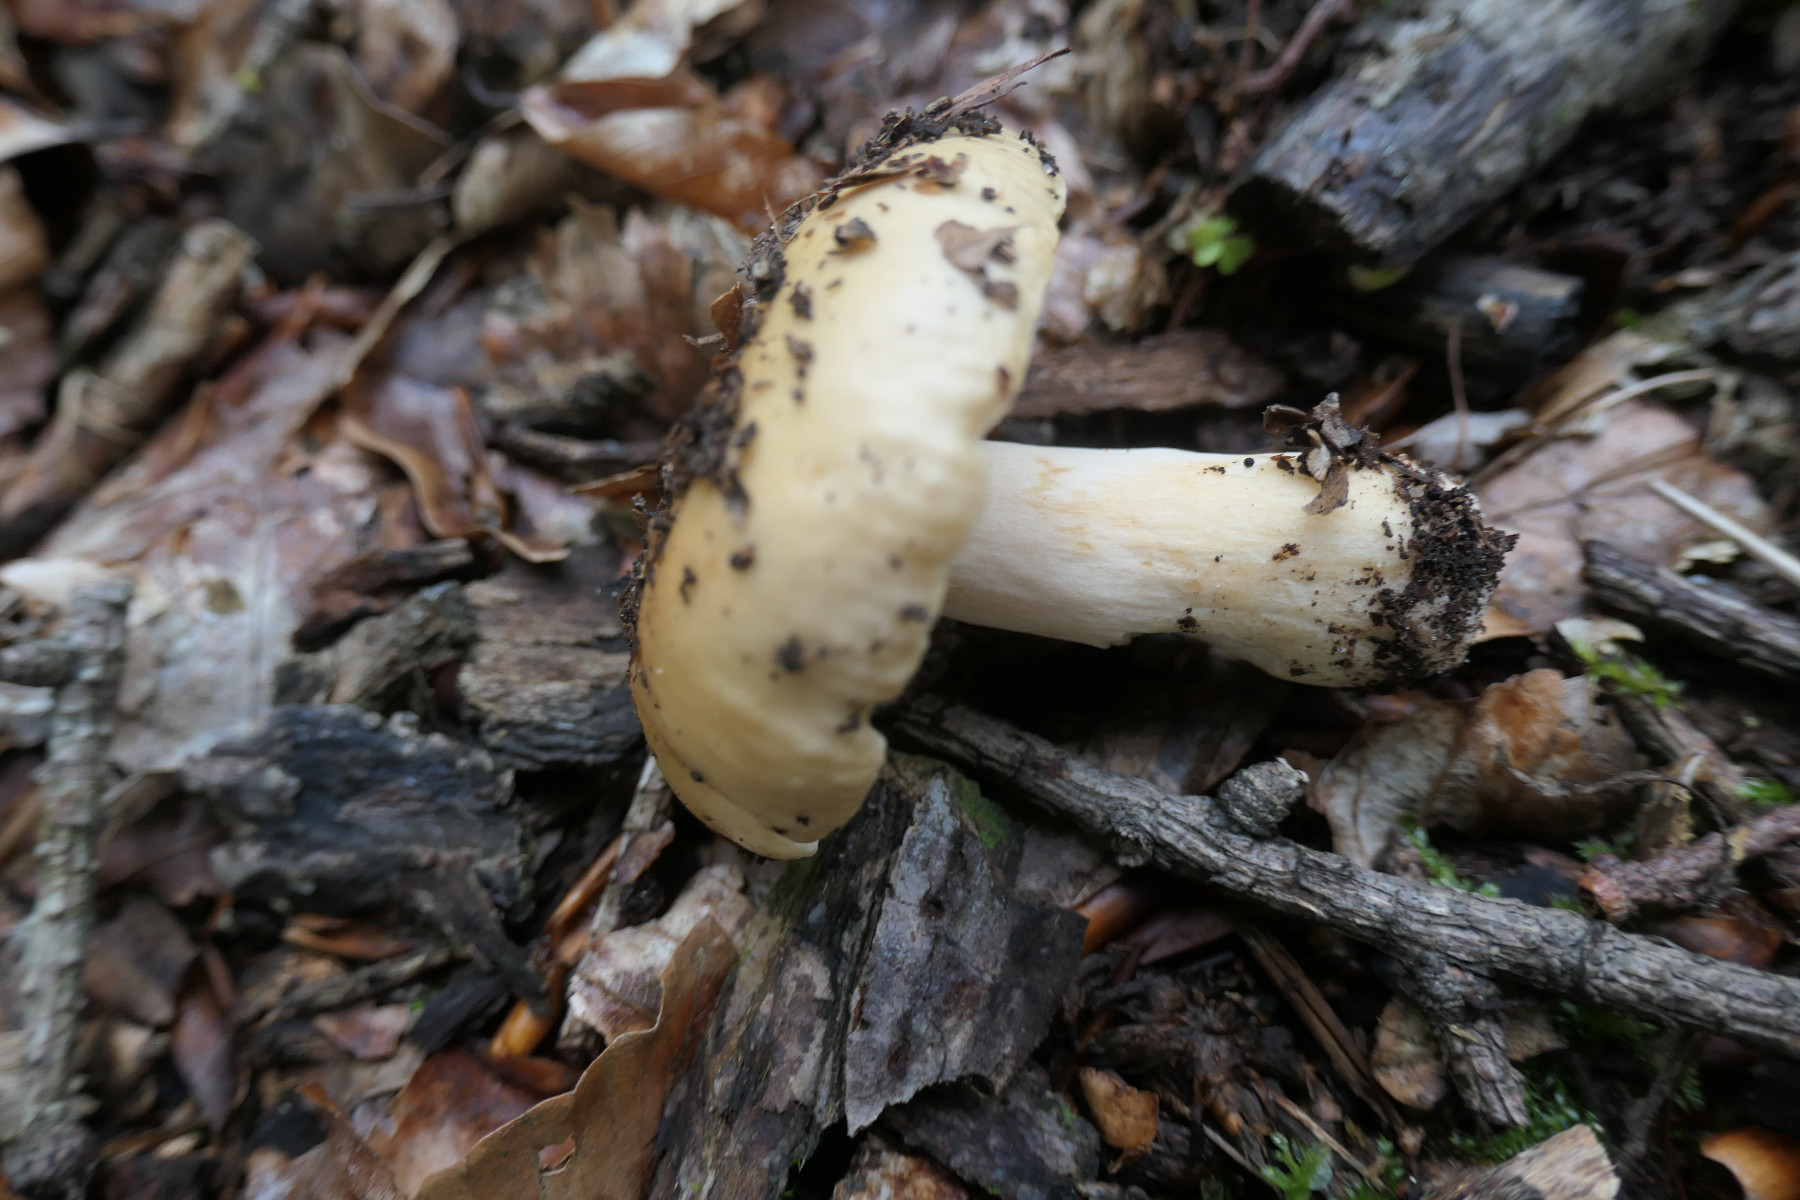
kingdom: Fungi
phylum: Basidiomycota
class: Agaricomycetes
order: Russulales
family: Russulaceae
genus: Russula
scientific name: Russula fellea
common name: galde-skørhat
